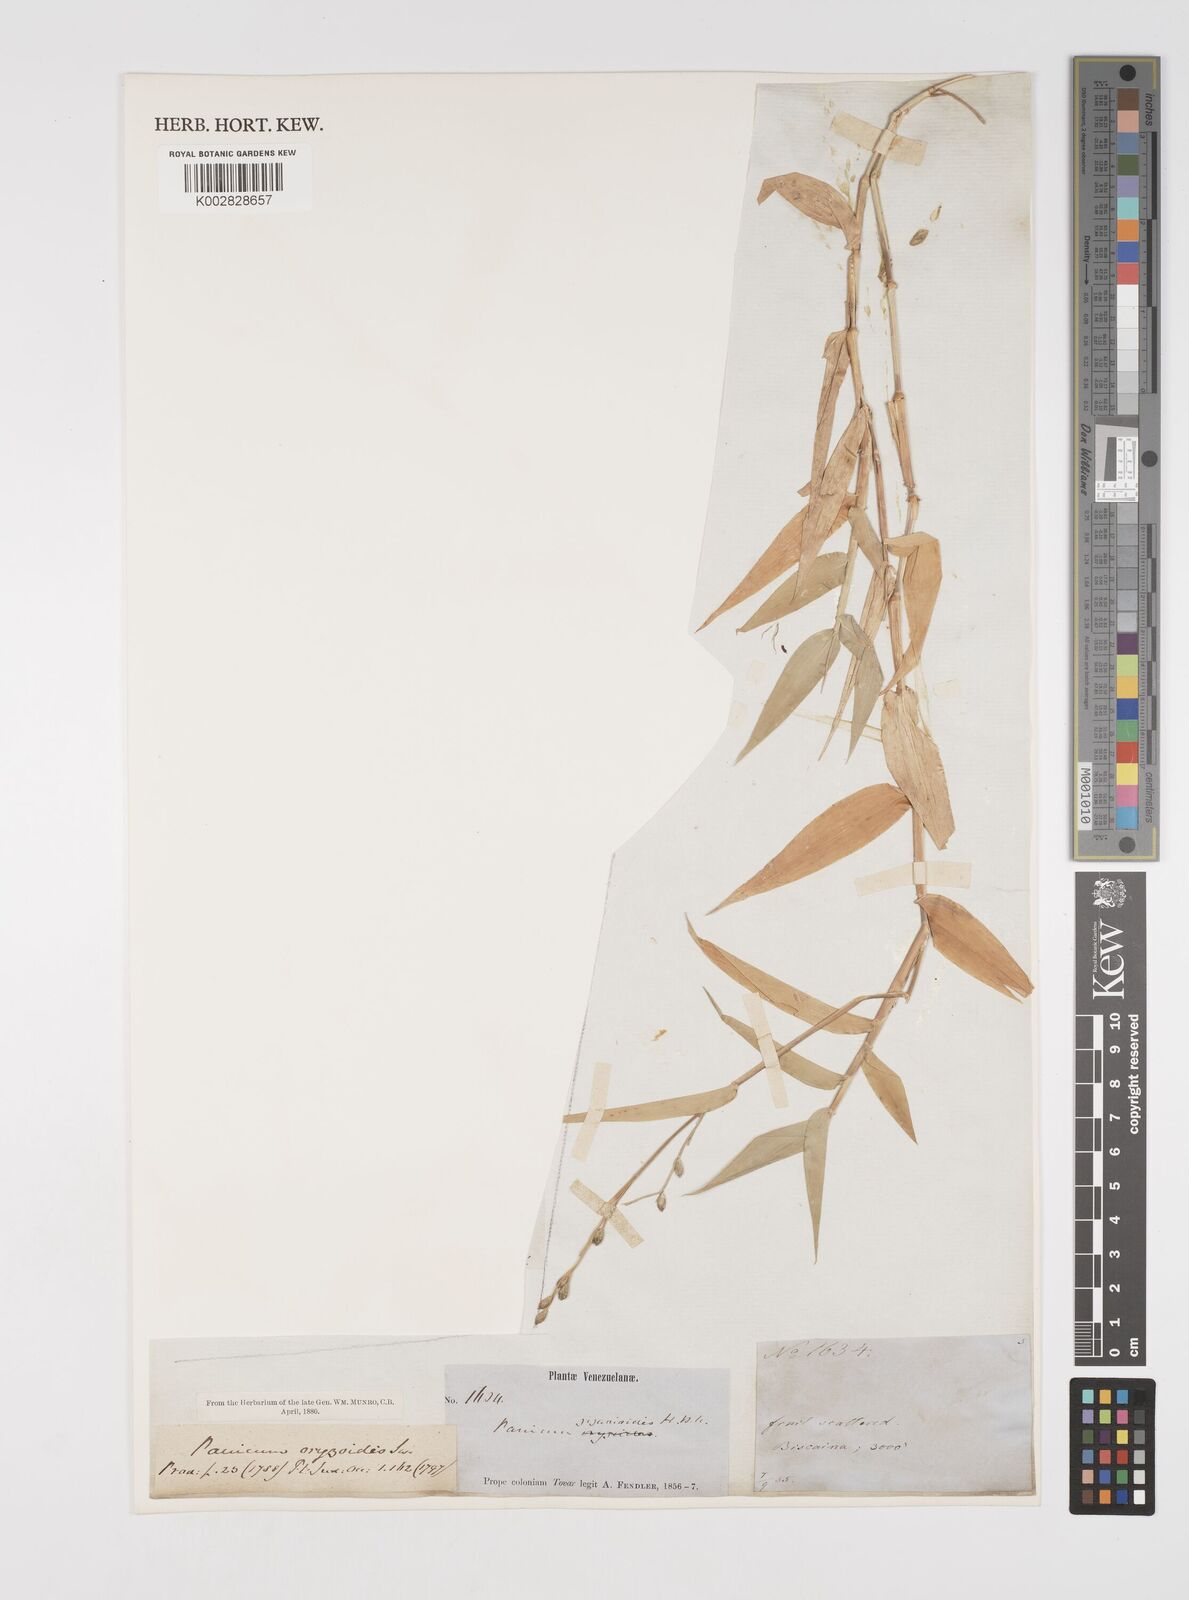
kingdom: Plantae
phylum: Tracheophyta
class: Liliopsida
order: Poales
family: Poaceae
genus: Acroceras
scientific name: Acroceras zizanioides
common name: Oat grass
